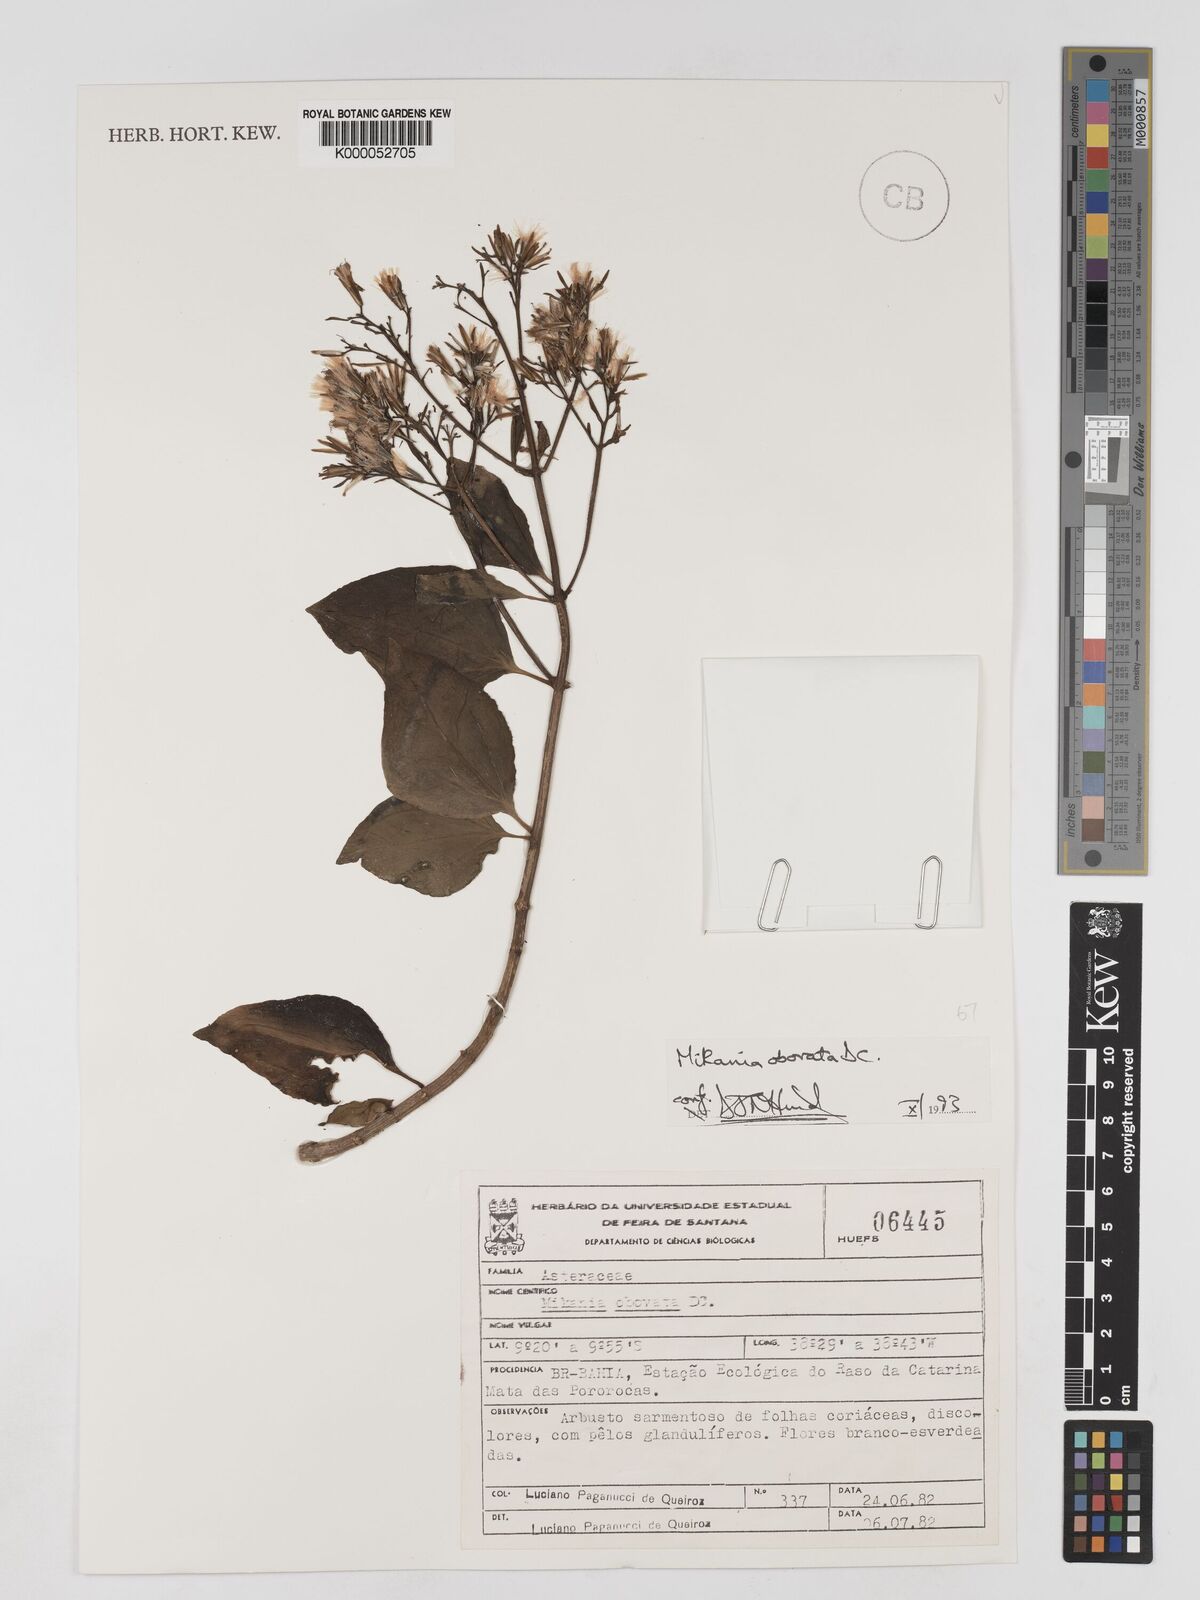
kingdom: Plantae
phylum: Tracheophyta
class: Magnoliopsida
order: Asterales
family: Asteraceae
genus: Mikania
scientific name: Mikania obovata
